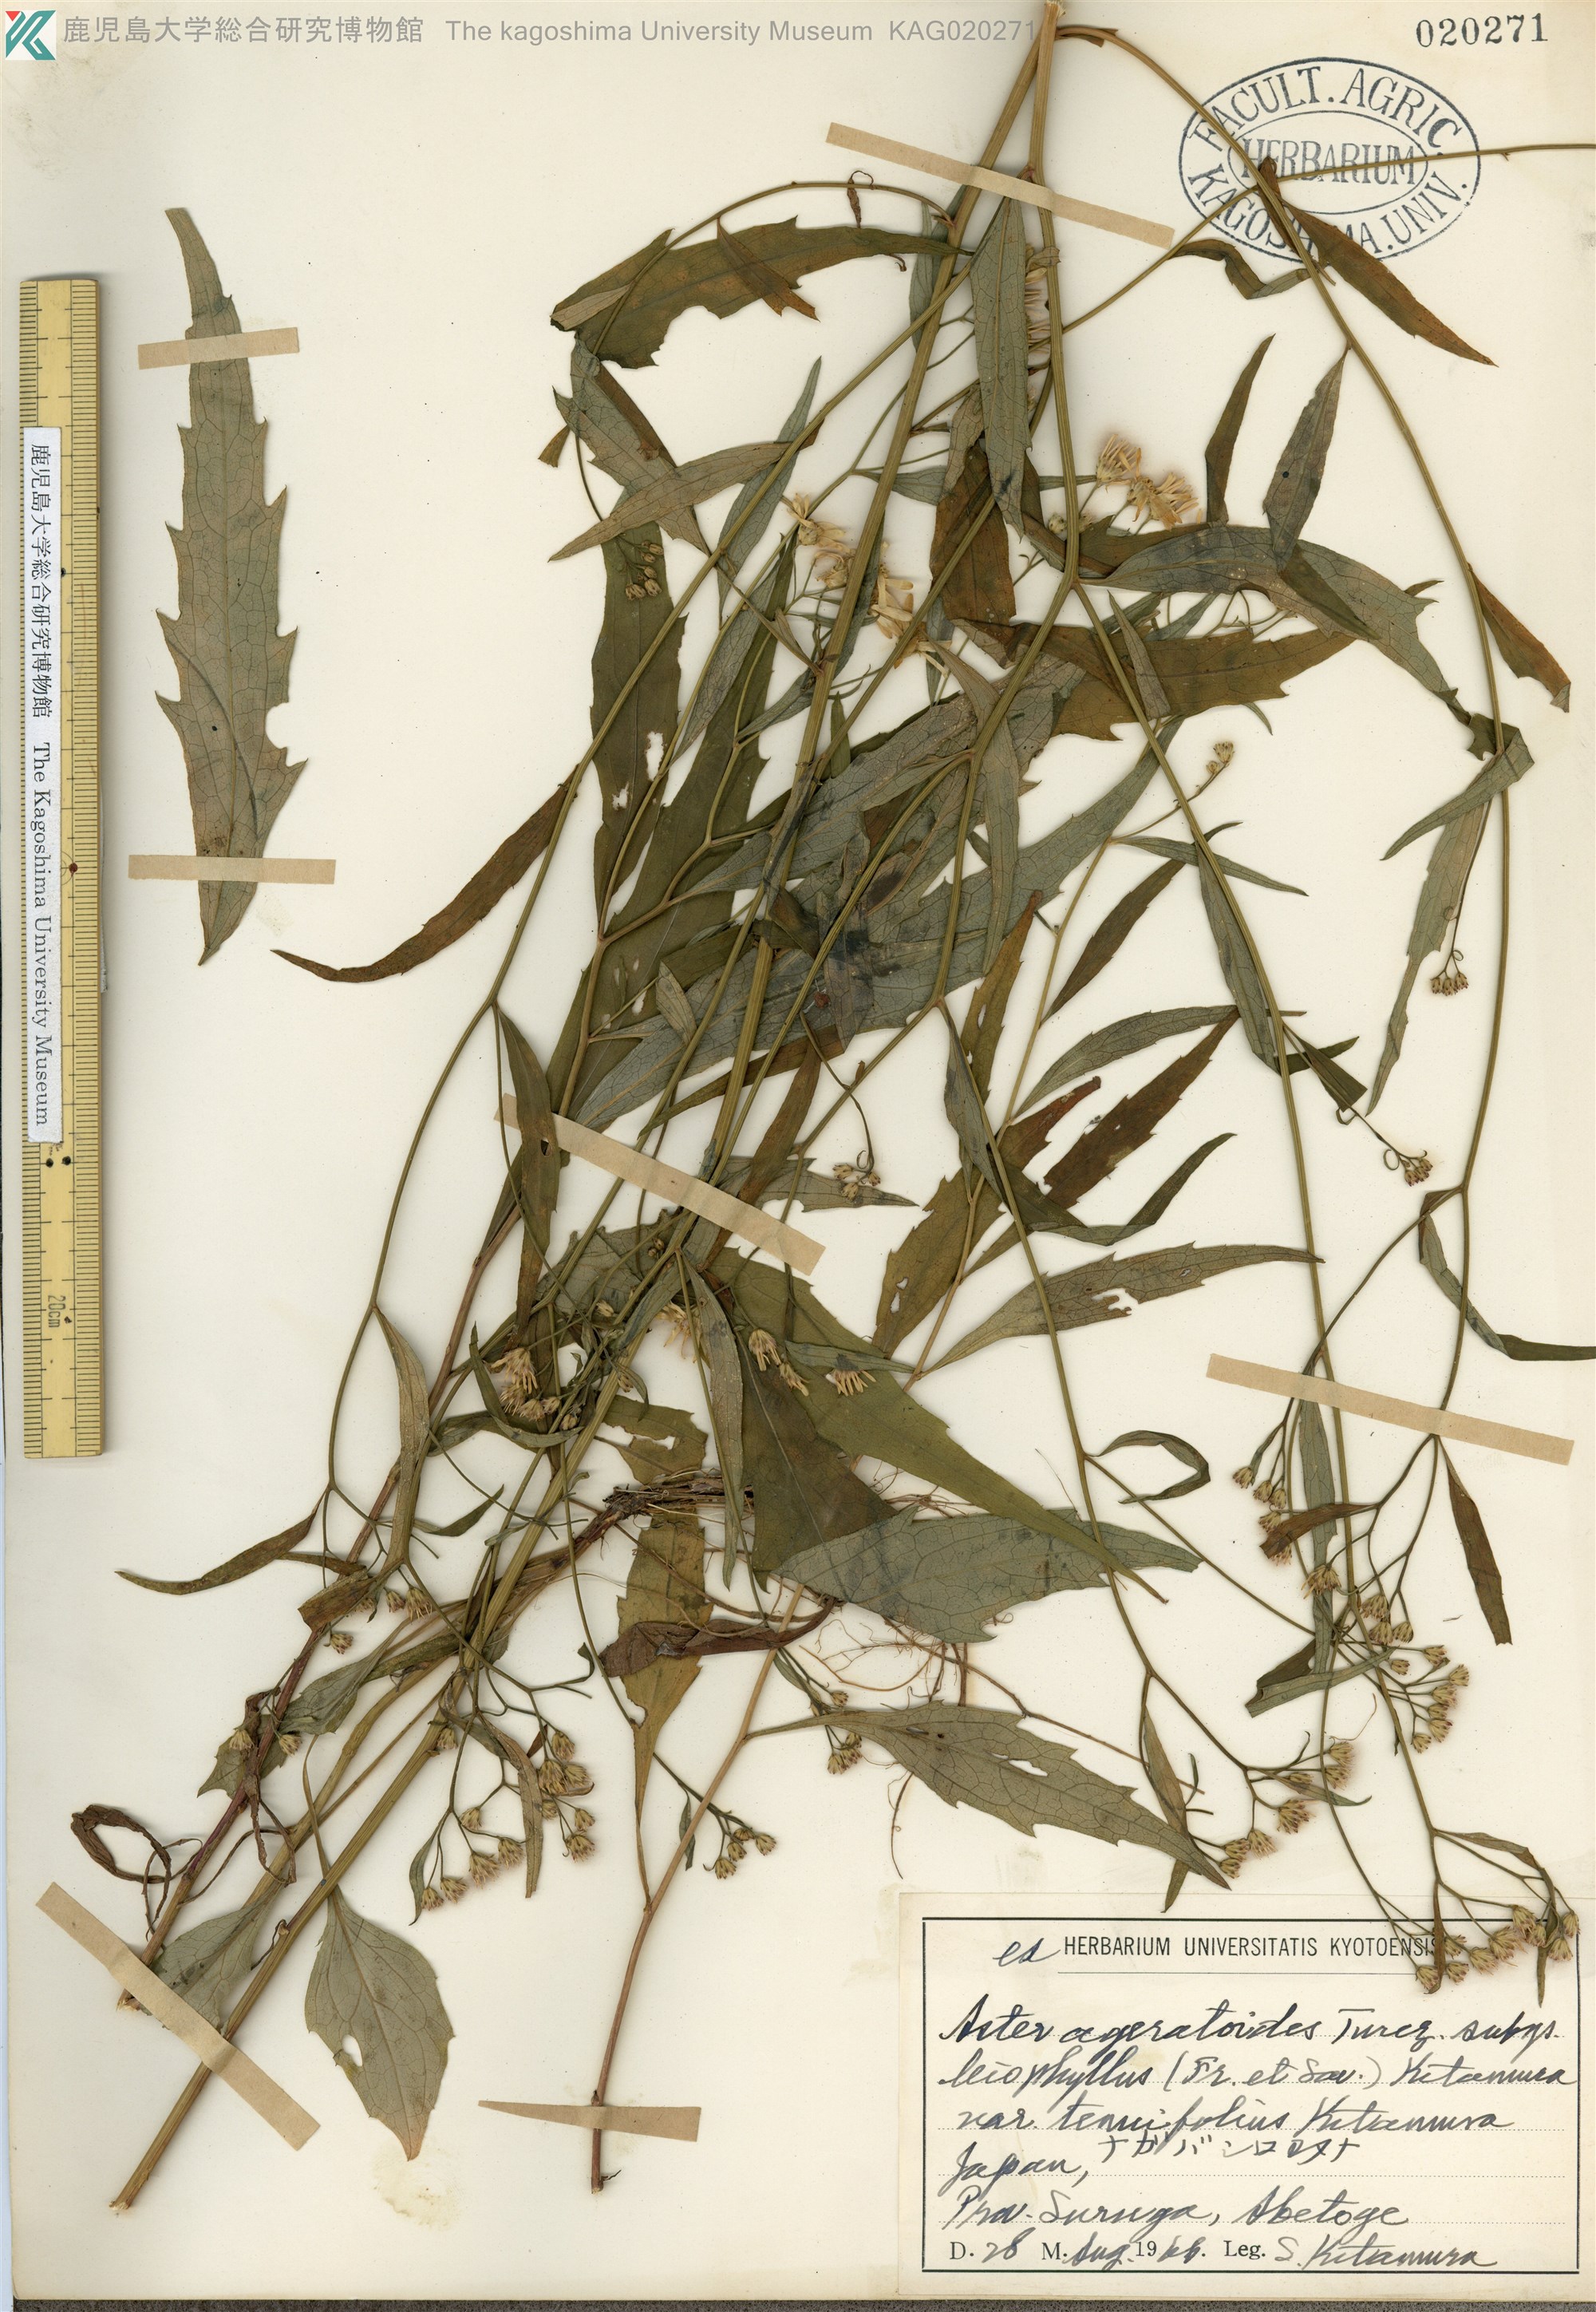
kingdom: Plantae
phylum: Tracheophyta
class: Magnoliopsida
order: Asterales
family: Asteraceae
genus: Aster
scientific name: Aster ageratoides
